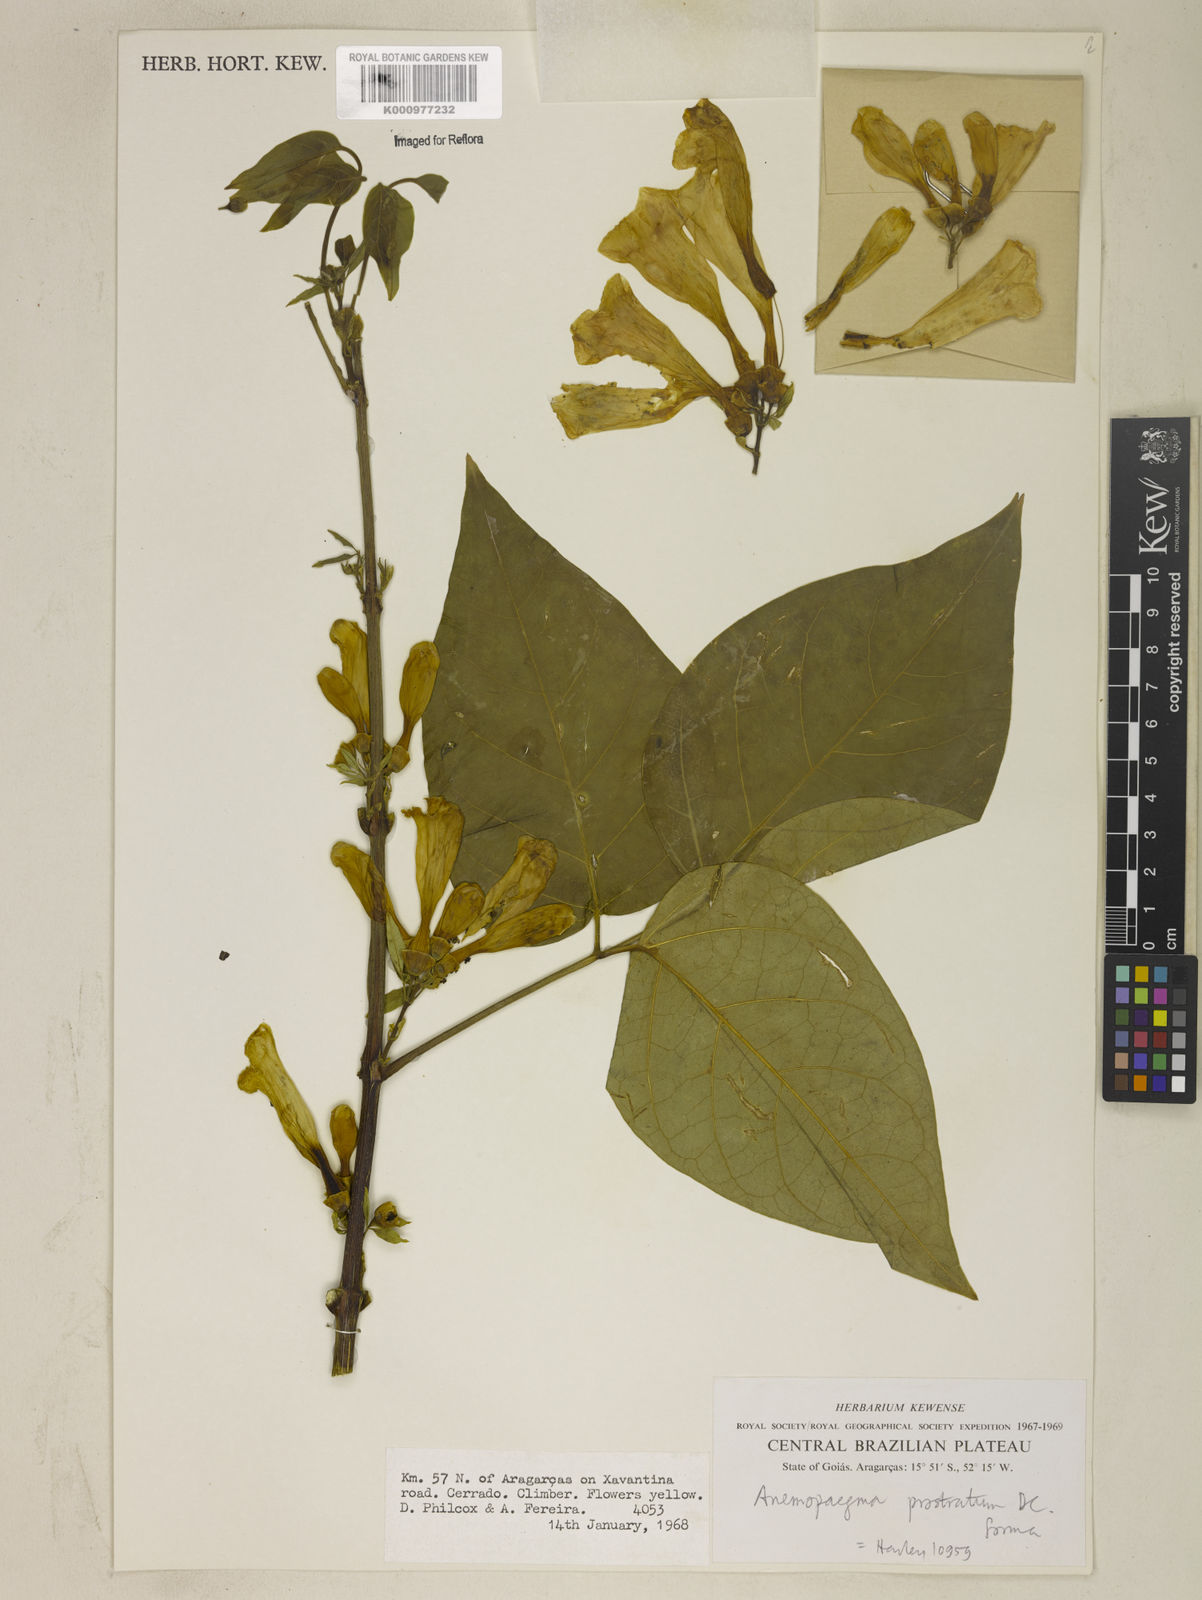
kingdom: Plantae
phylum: Tracheophyta
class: Magnoliopsida
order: Lamiales
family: Bignoniaceae
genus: Anemopaegma
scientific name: Anemopaegma
